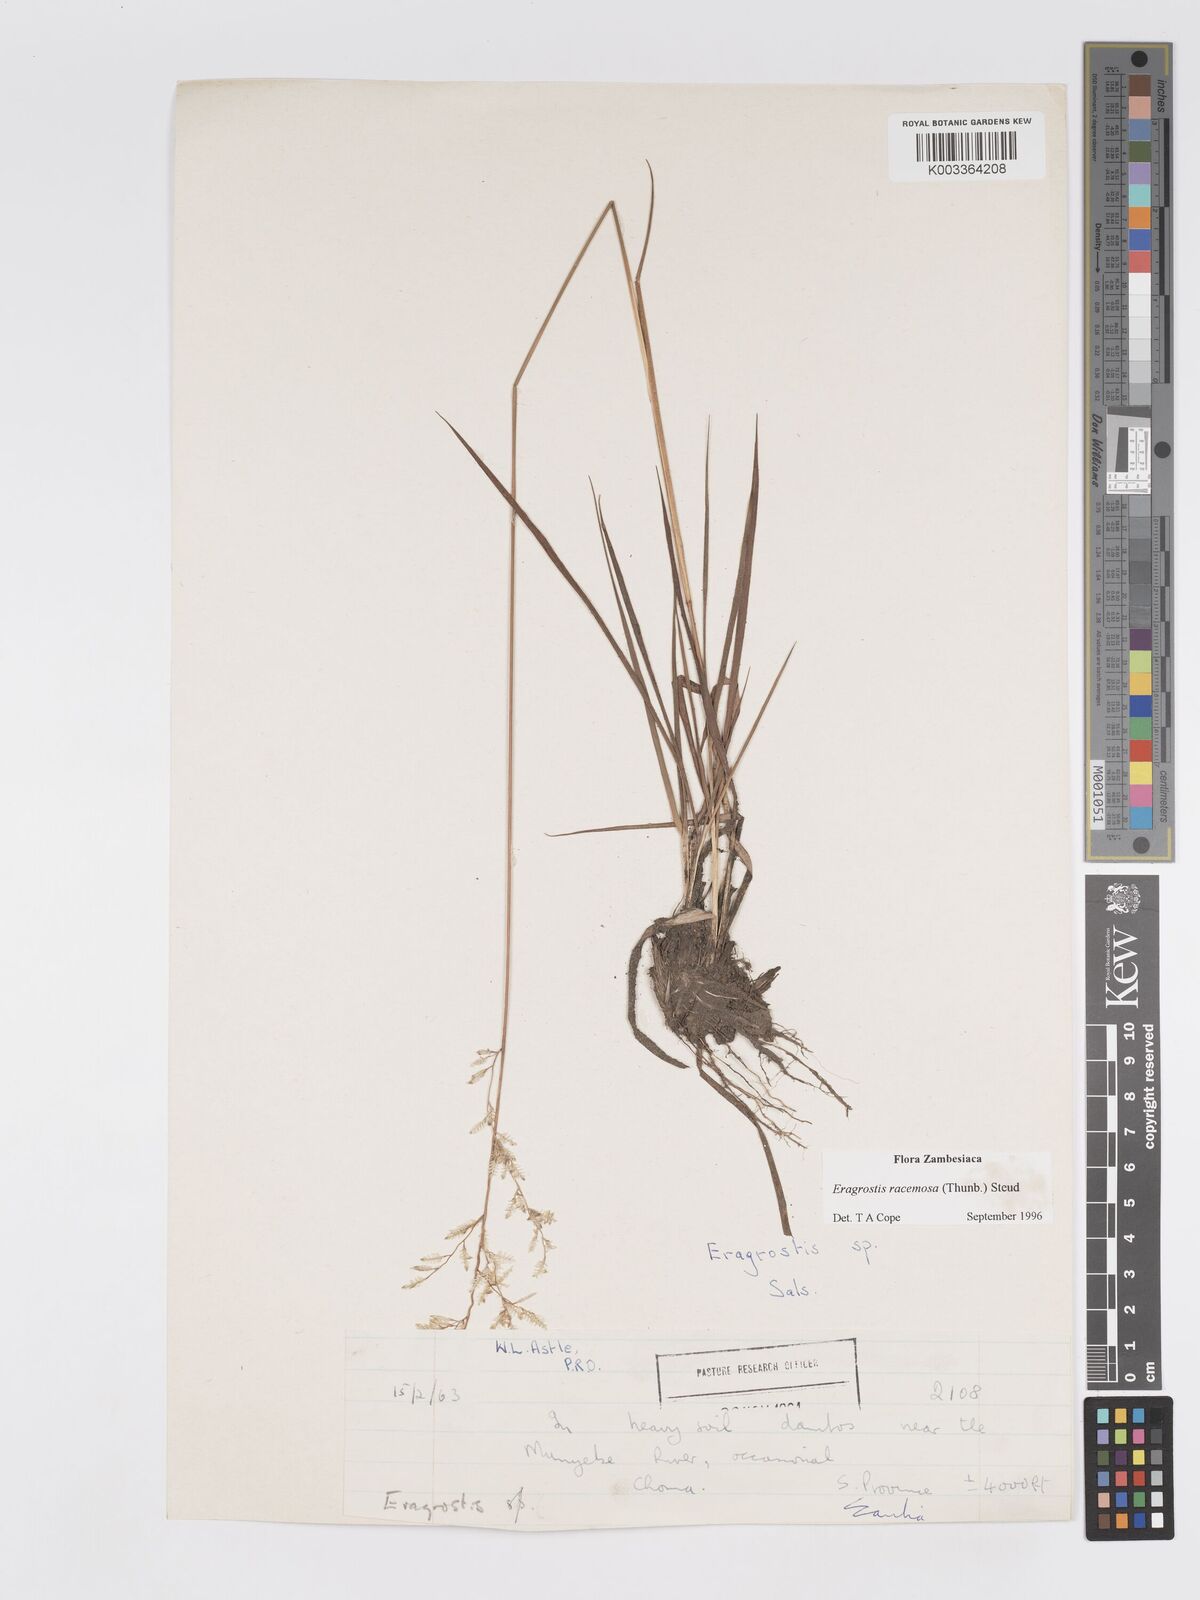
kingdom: Plantae
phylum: Tracheophyta
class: Liliopsida
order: Poales
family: Poaceae
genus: Eragrostis
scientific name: Eragrostis racemosa
